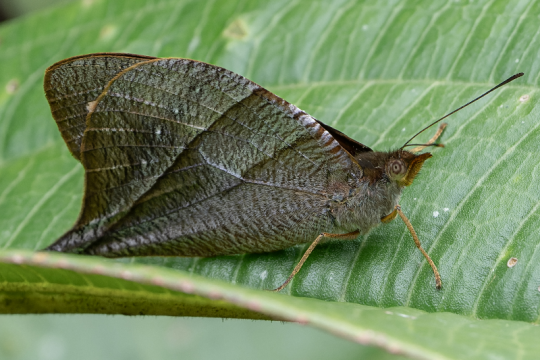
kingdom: Animalia
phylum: Arthropoda
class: Insecta
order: Lepidoptera
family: Nymphalidae
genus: Corades
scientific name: Corades chelonis
